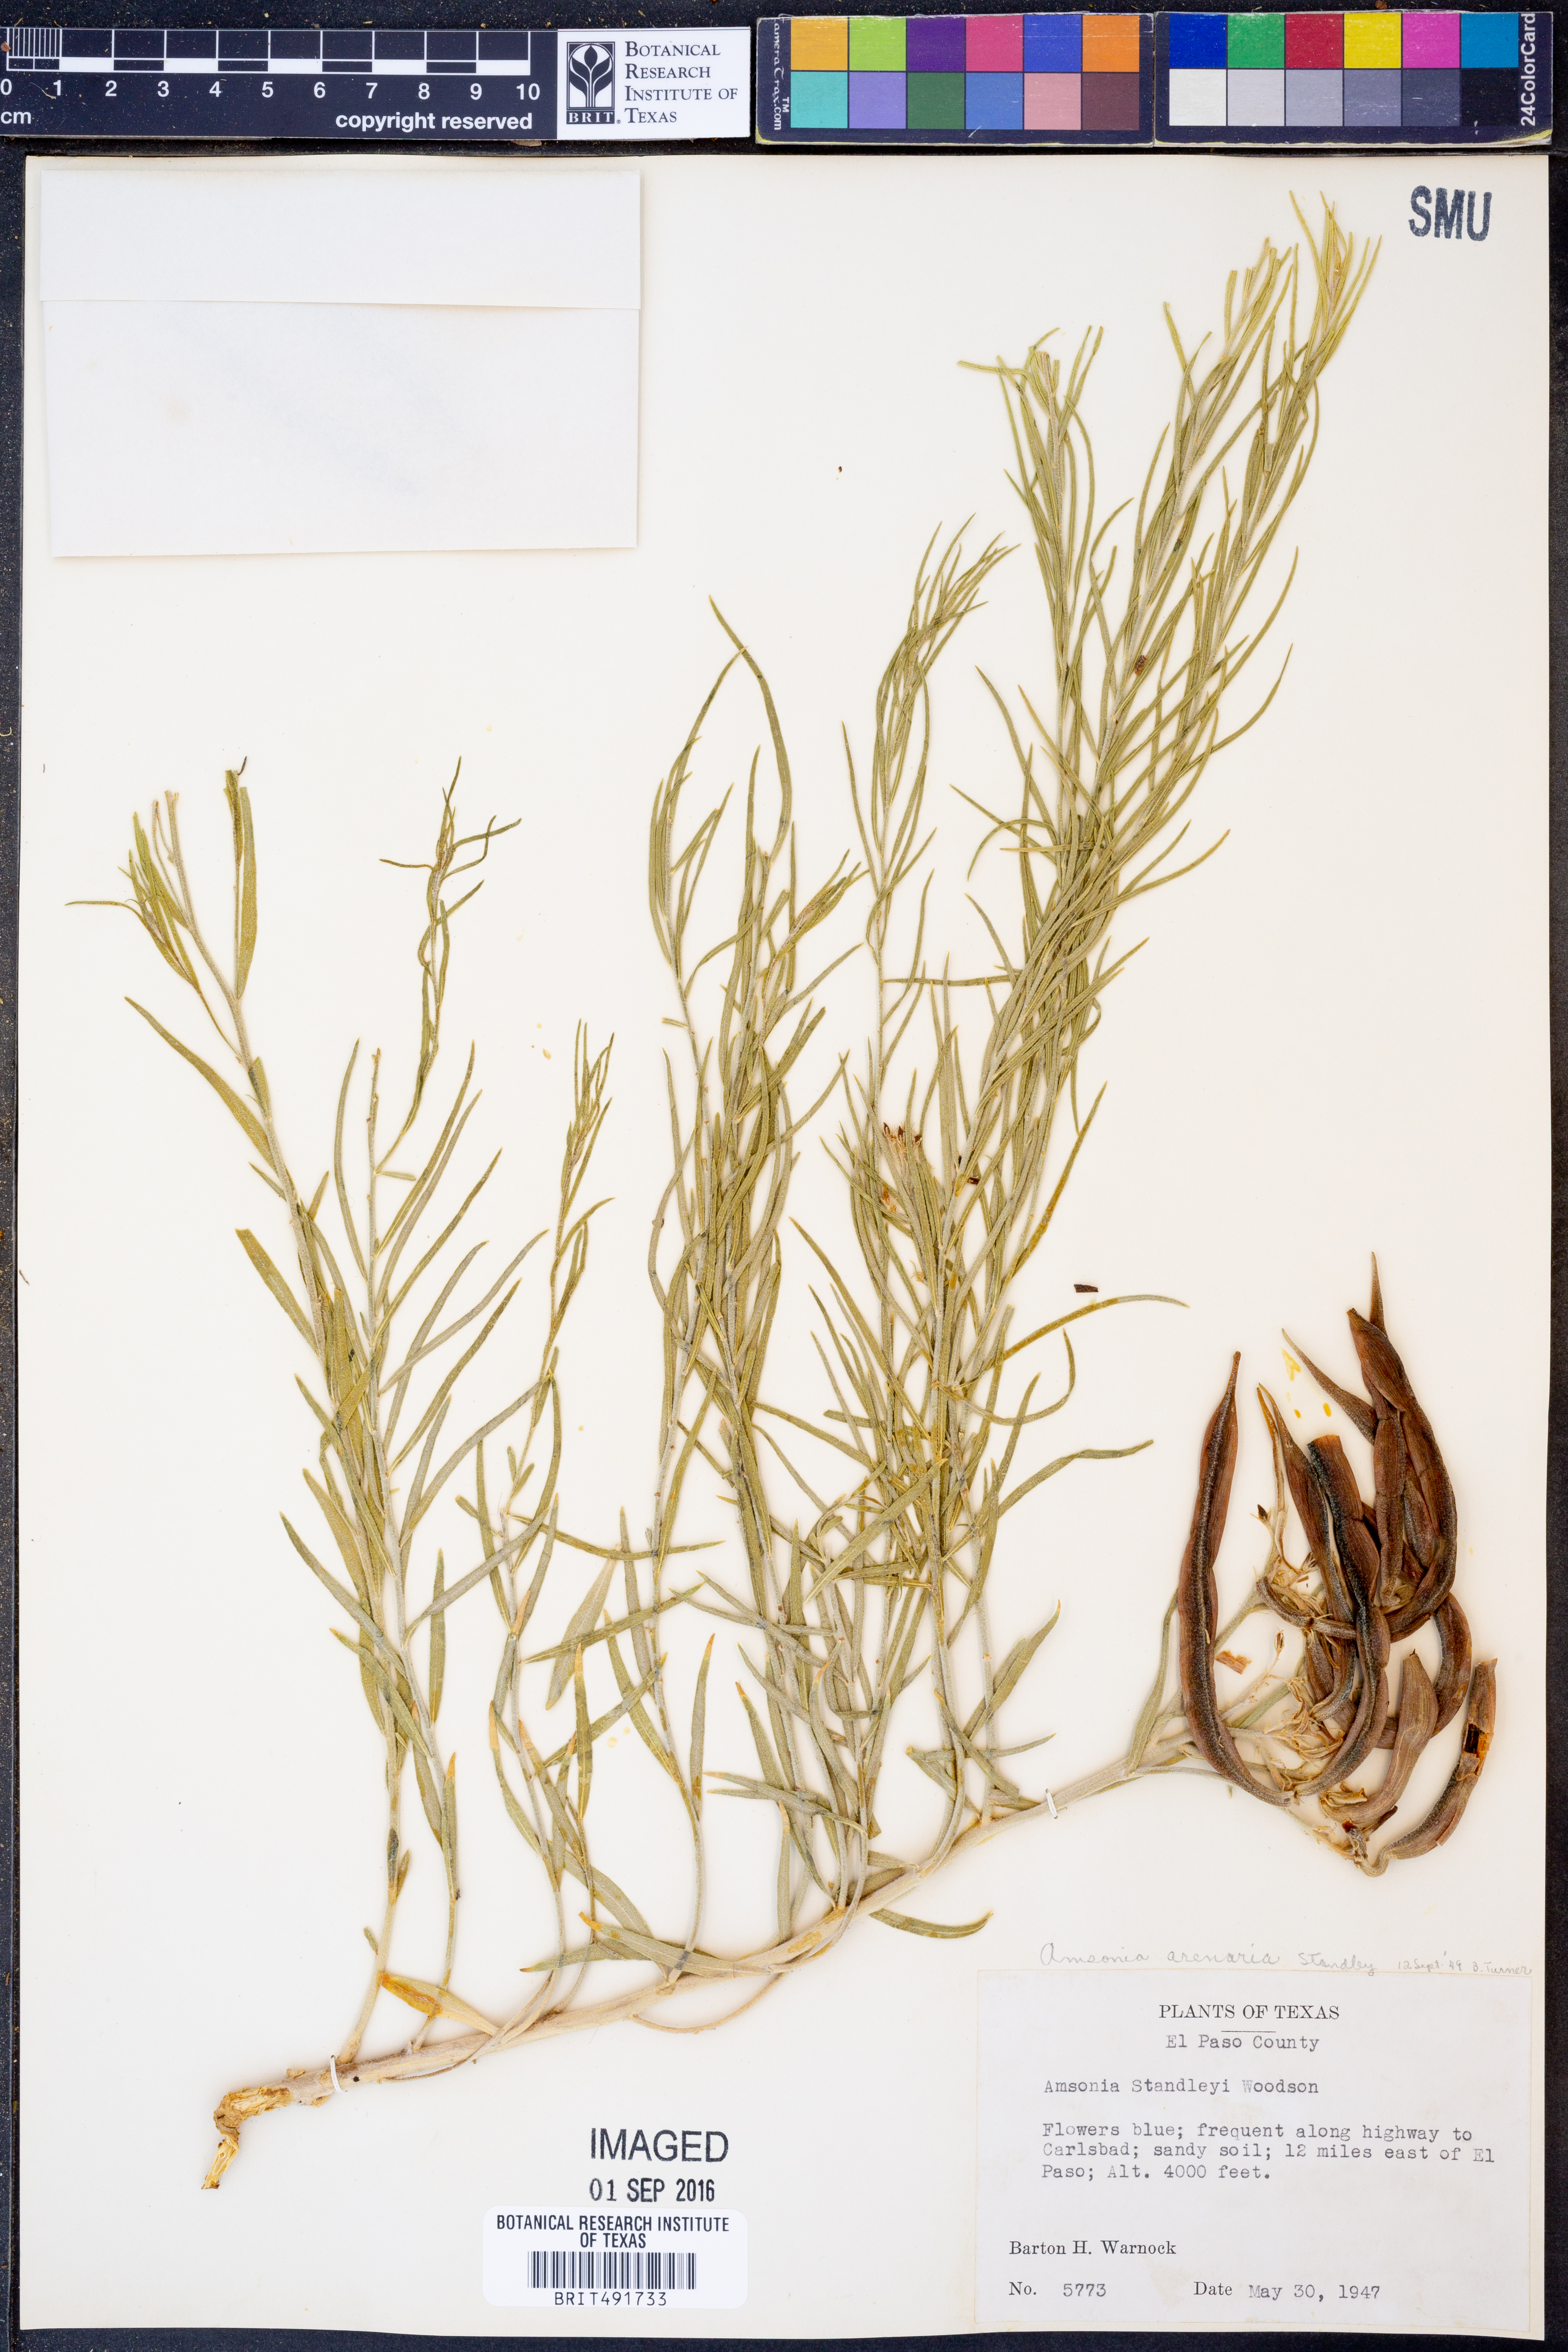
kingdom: Plantae
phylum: Tracheophyta
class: Magnoliopsida
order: Gentianales
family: Apocynaceae
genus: Amsonia
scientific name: Amsonia tomentosa
